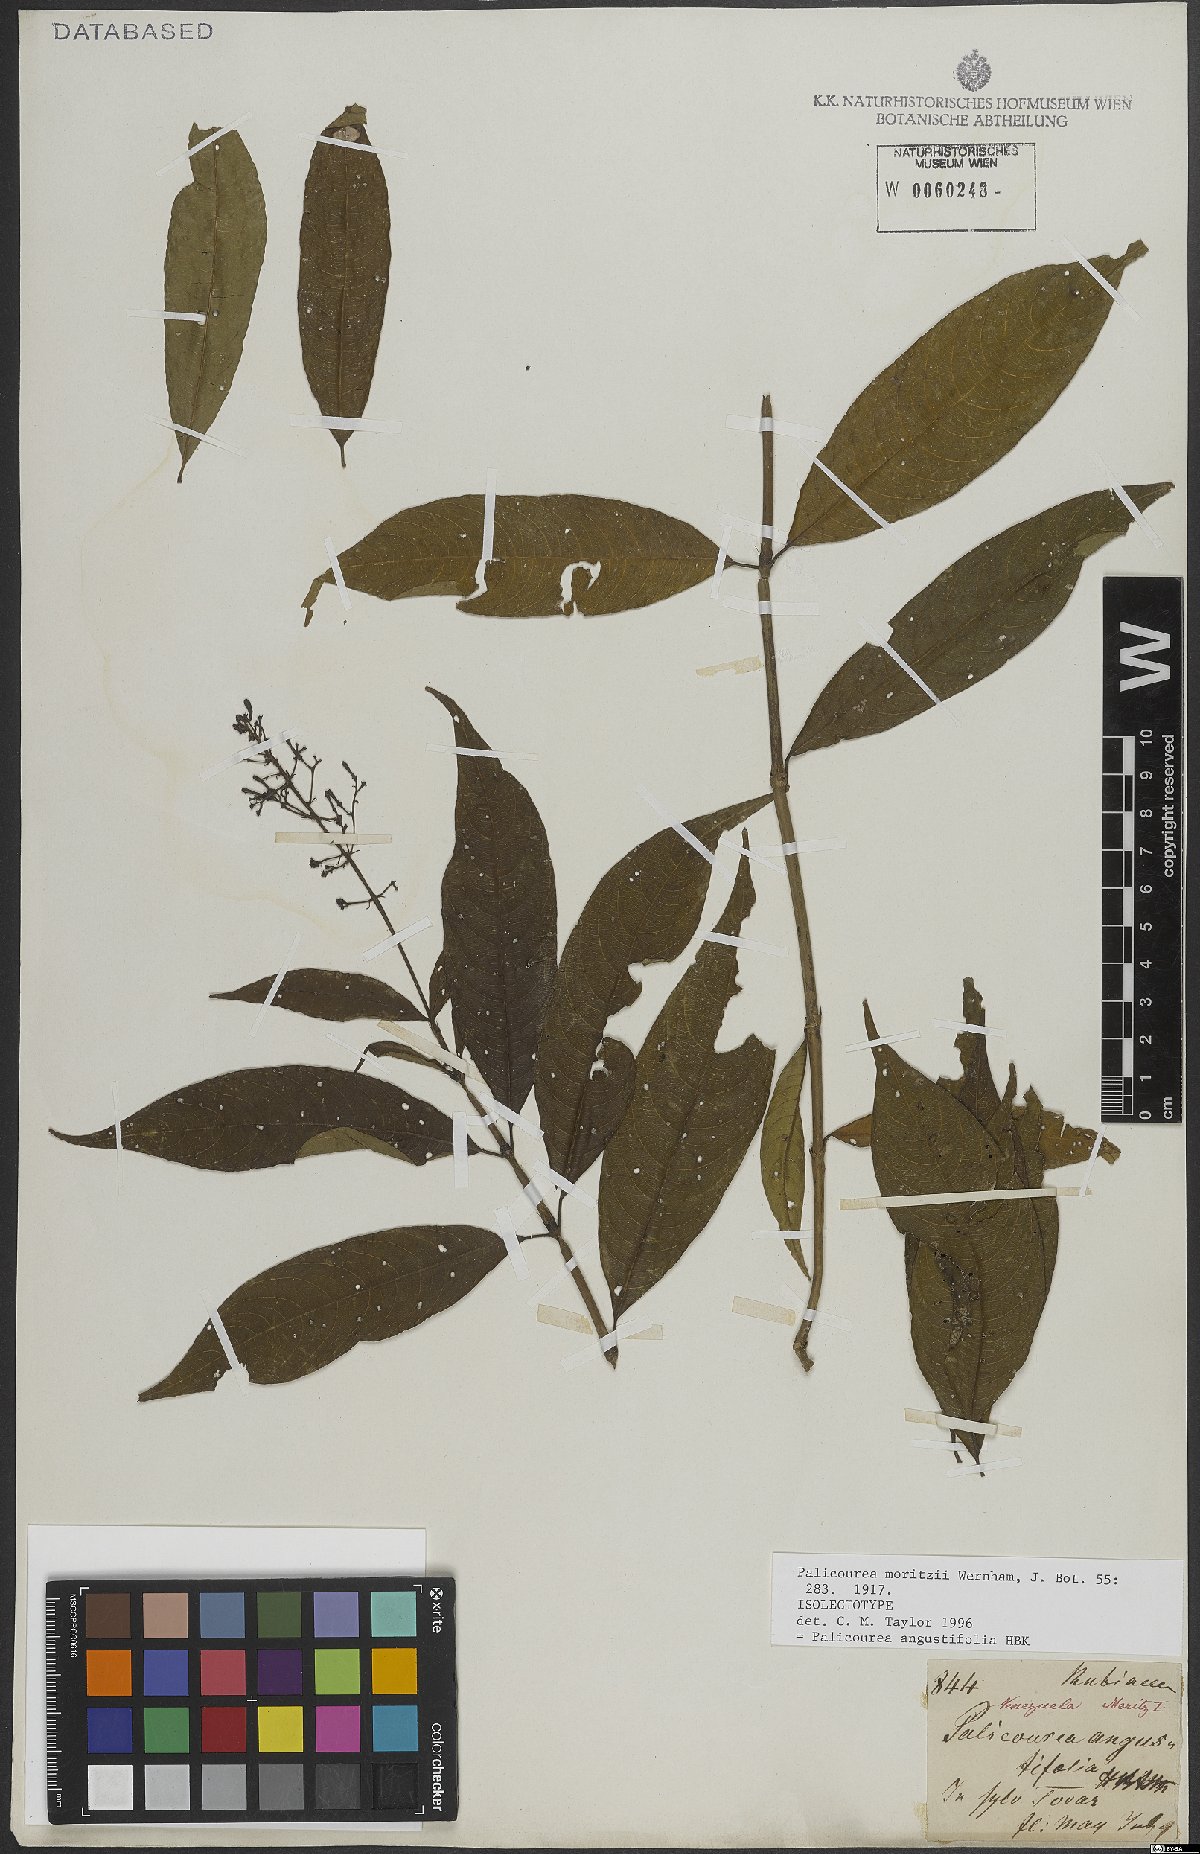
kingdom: Plantae
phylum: Tracheophyta
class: Magnoliopsida
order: Gentianales
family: Rubiaceae
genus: Palicourea
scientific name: Palicourea angustifolia
